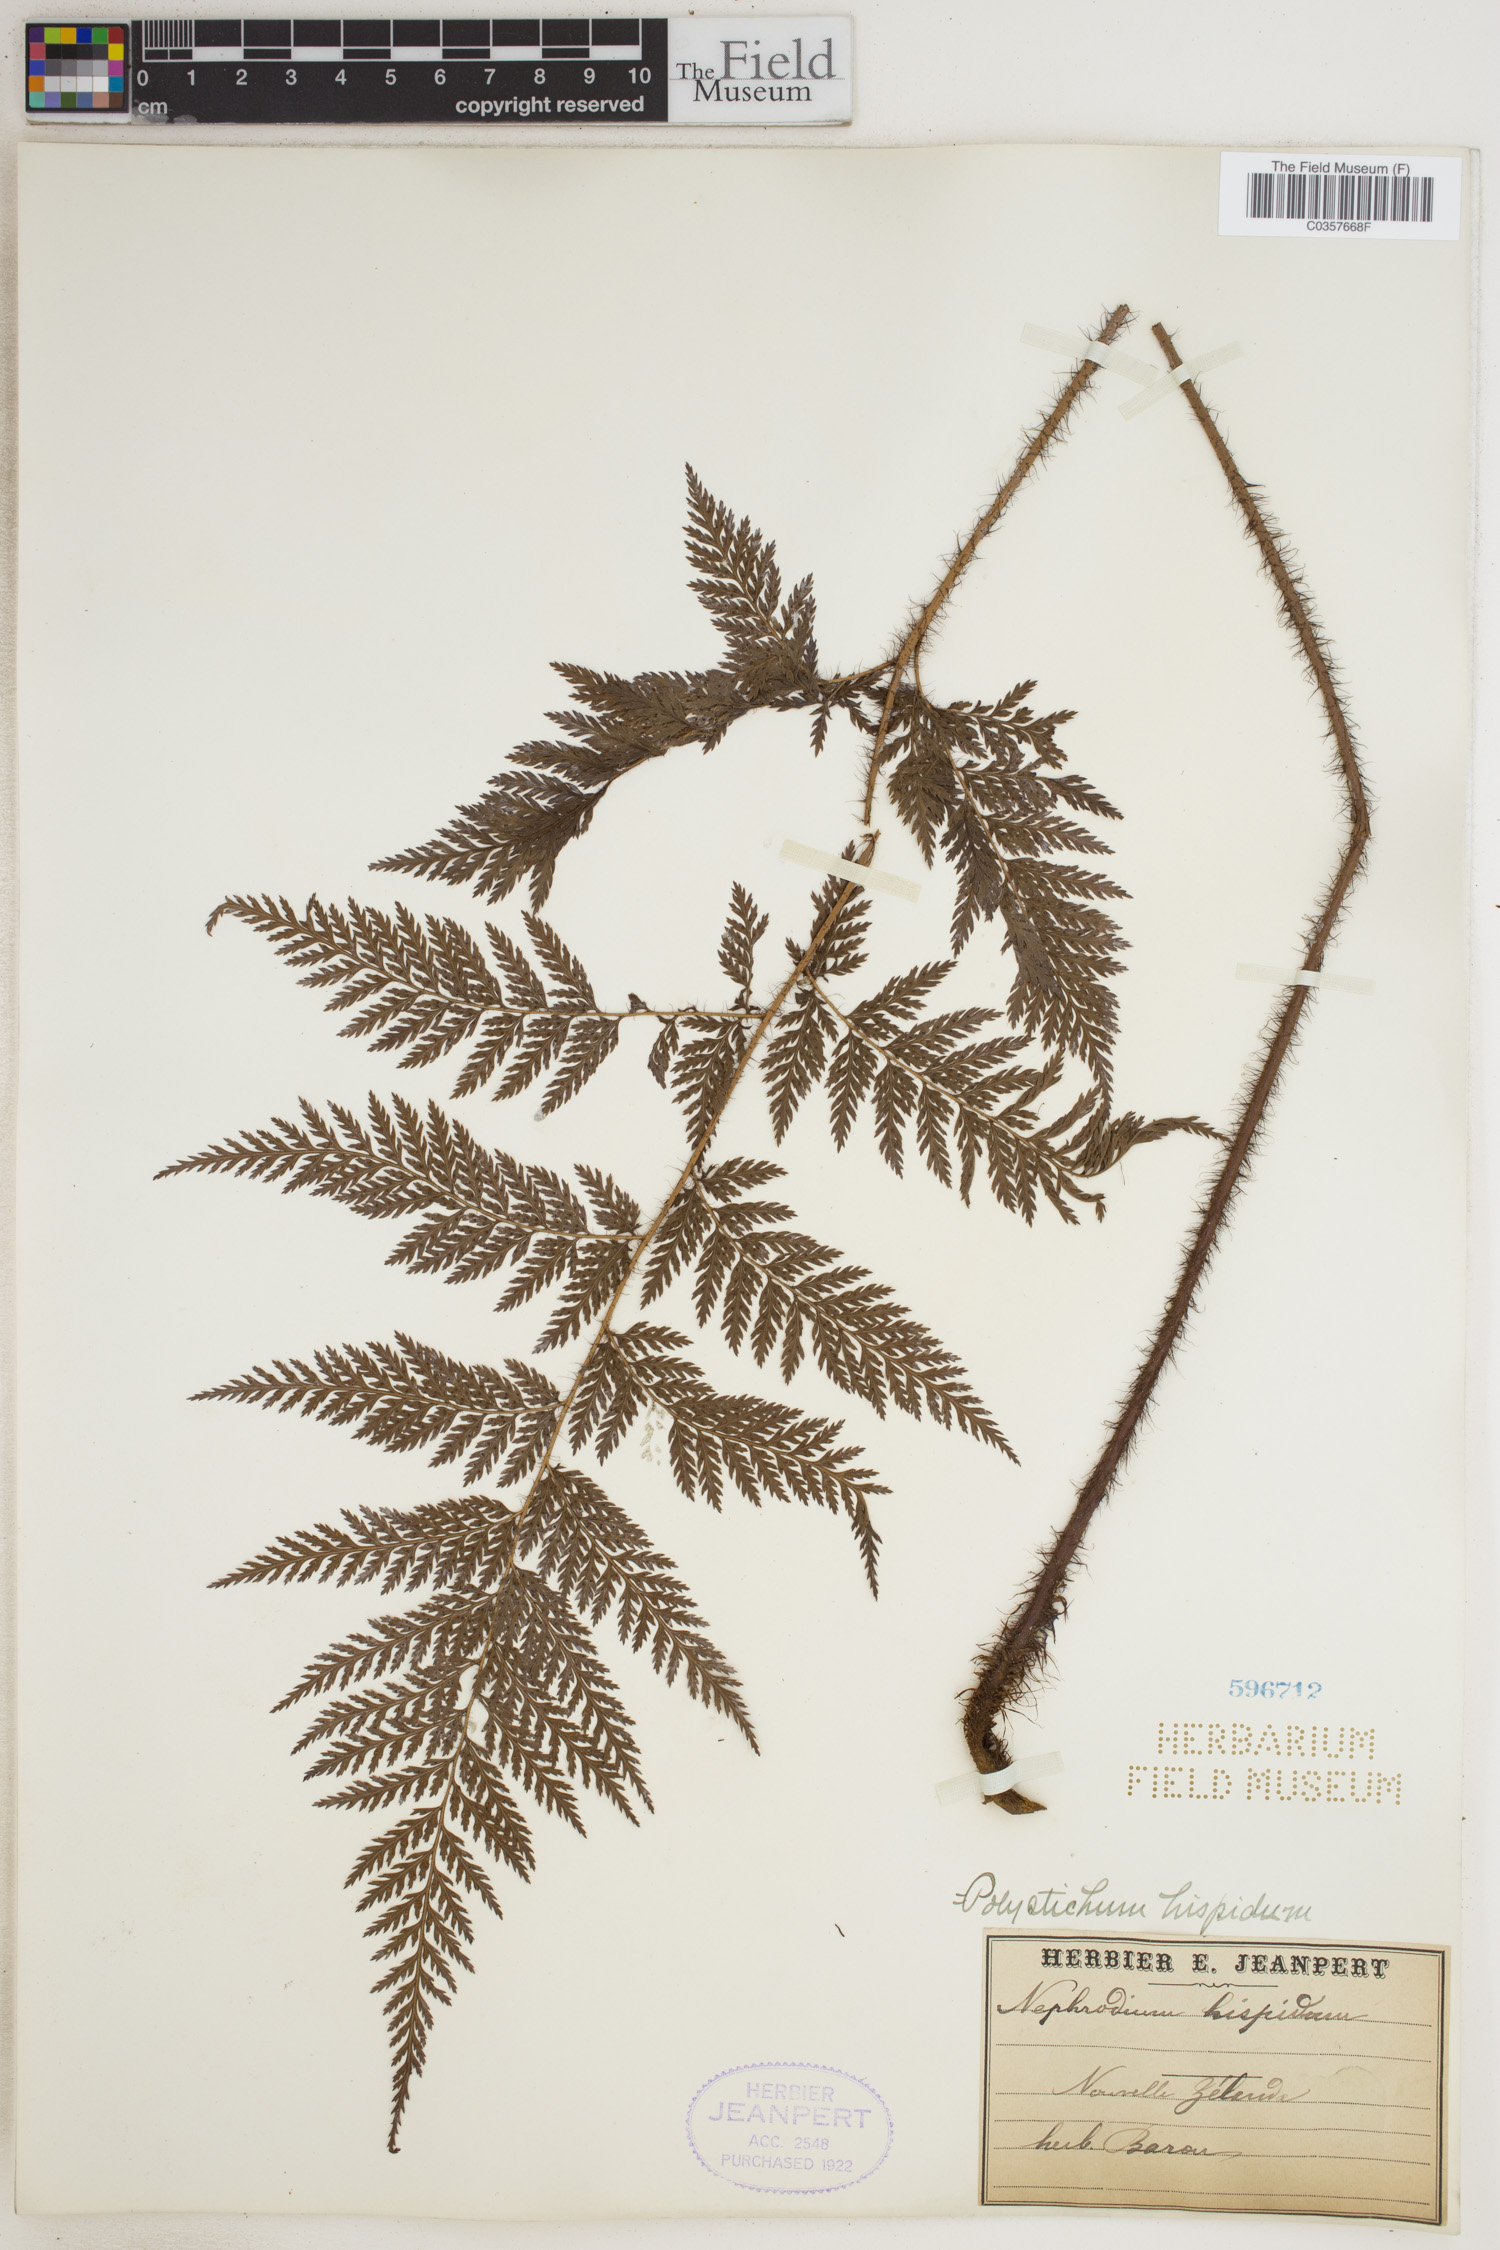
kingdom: Plantae
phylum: Tracheophyta
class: Polypodiopsida
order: Polypodiales
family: Dryopteridaceae
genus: Lastreopsis
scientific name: Lastreopsis hispida
